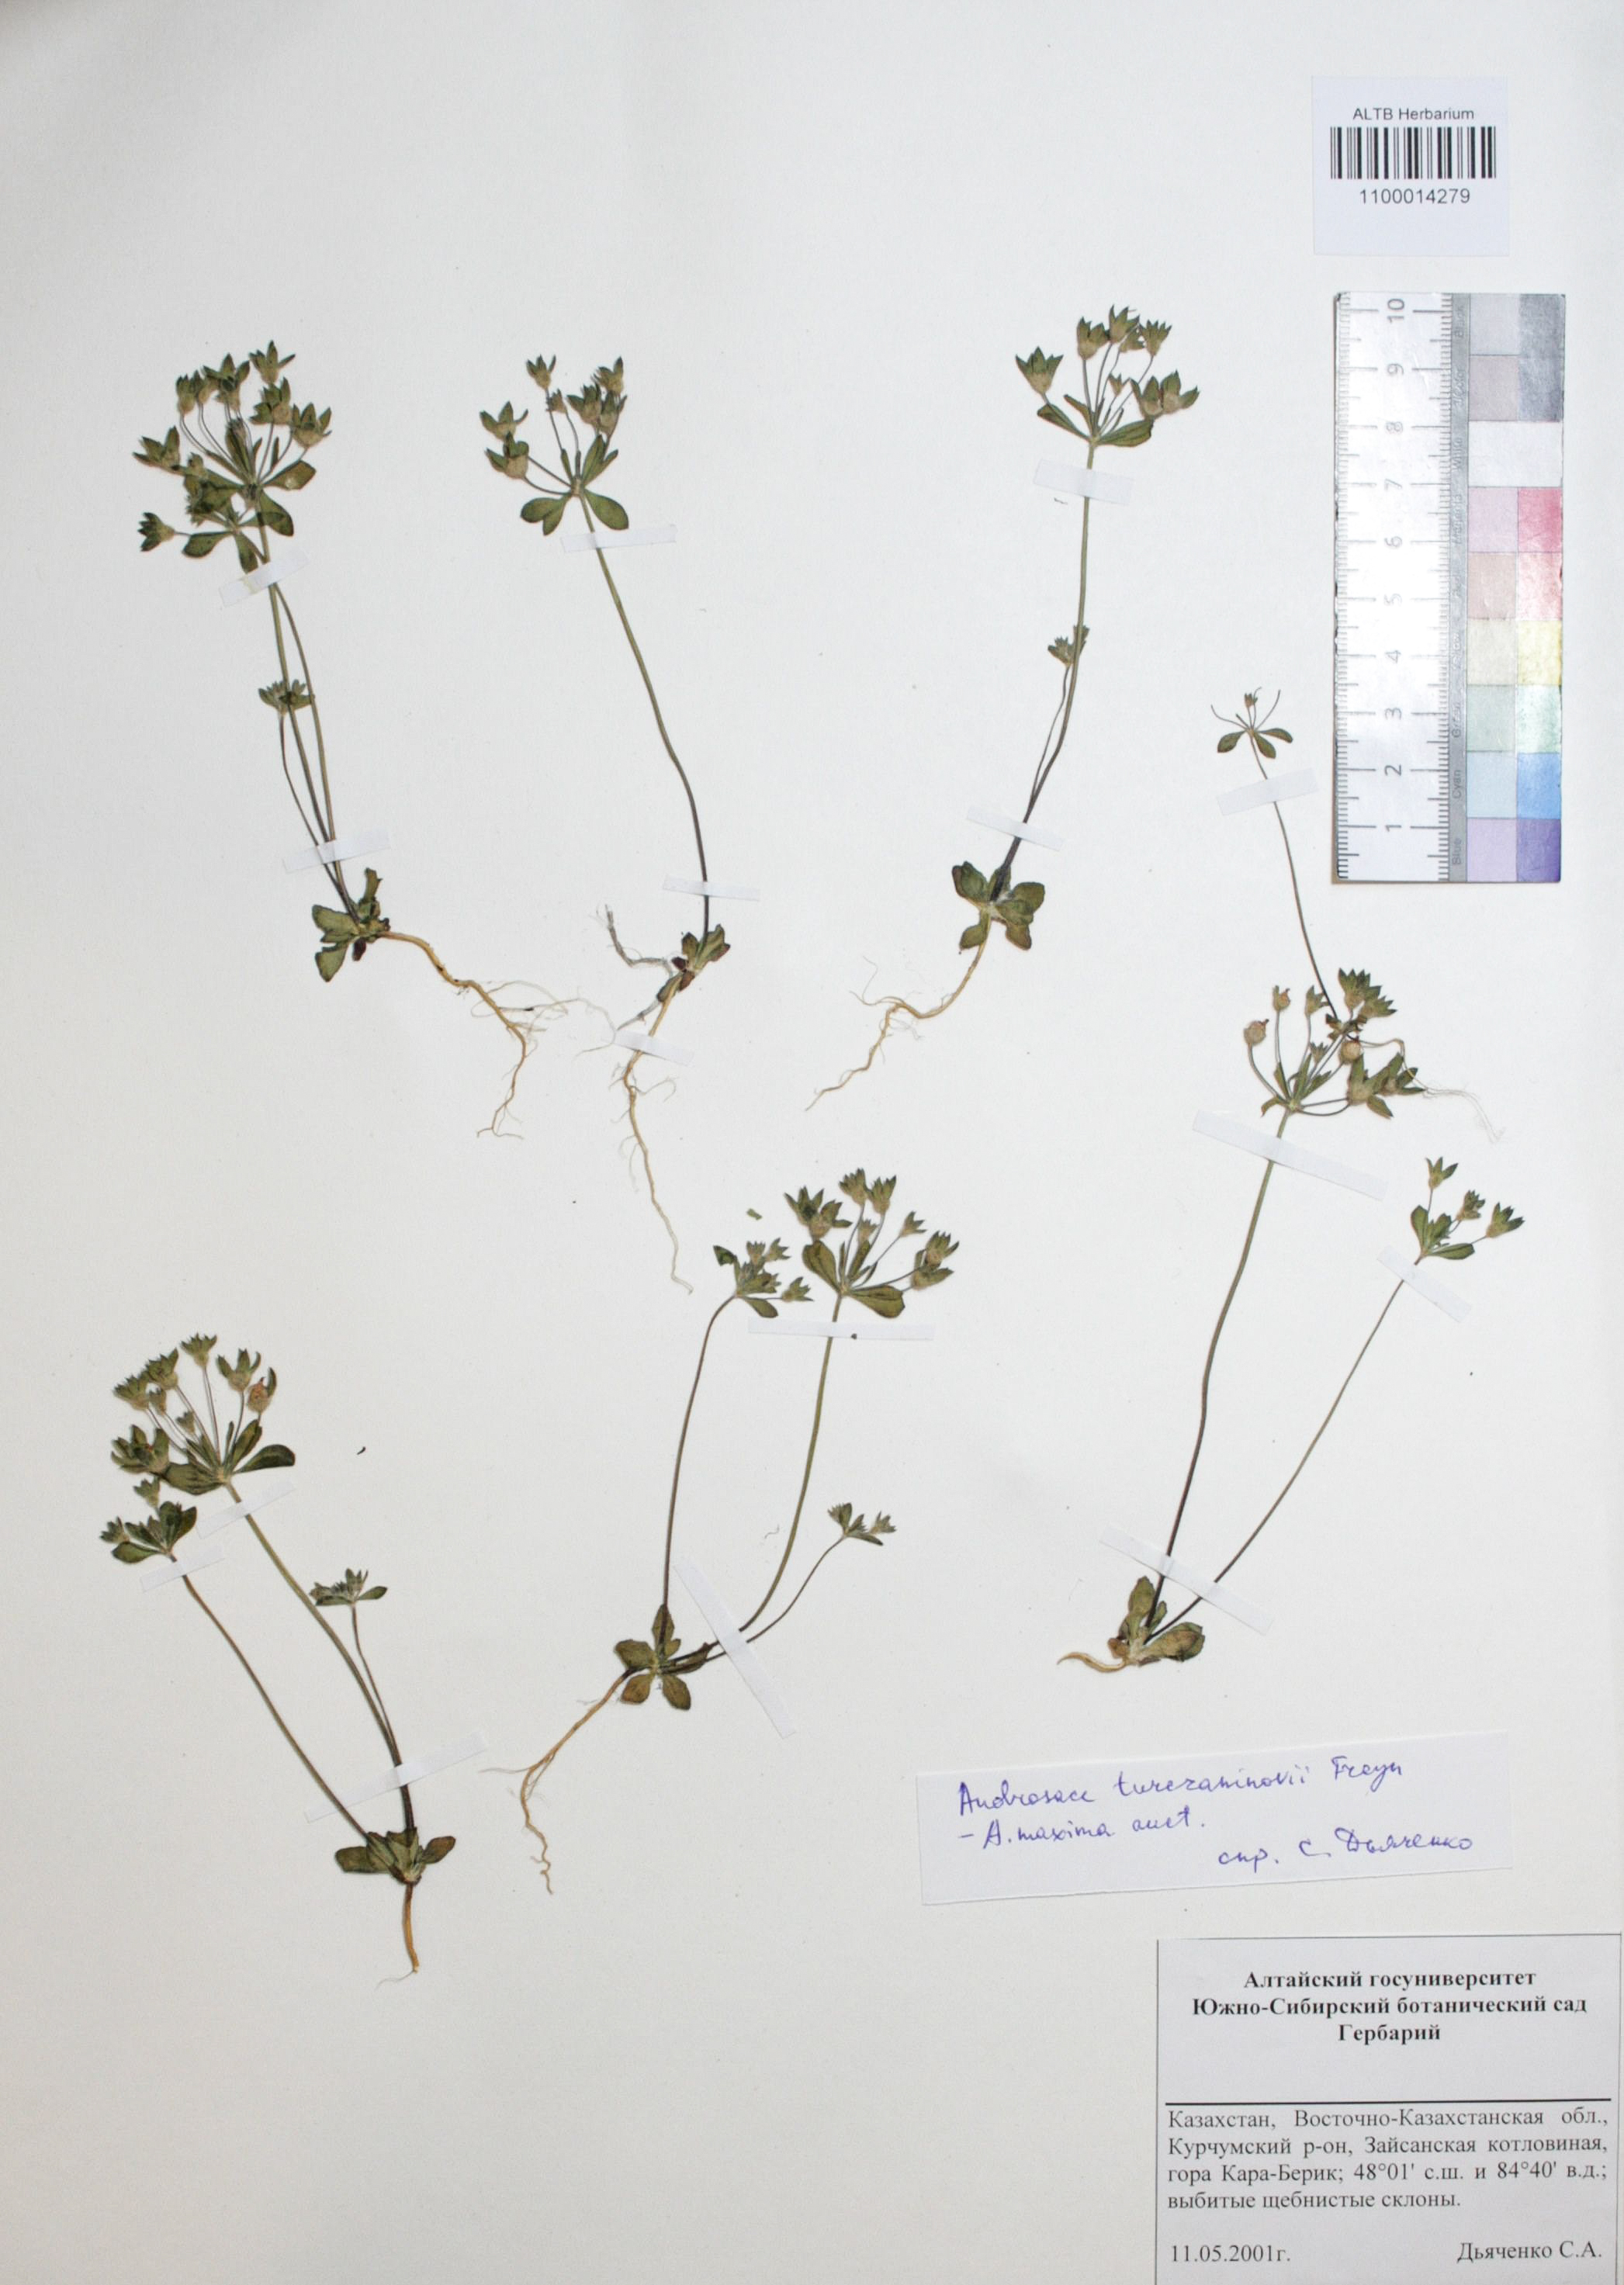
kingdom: Plantae
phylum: Tracheophyta
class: Magnoliopsida
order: Ericales
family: Primulaceae
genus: Androsace
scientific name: Androsace maxima
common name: Annual androsace
